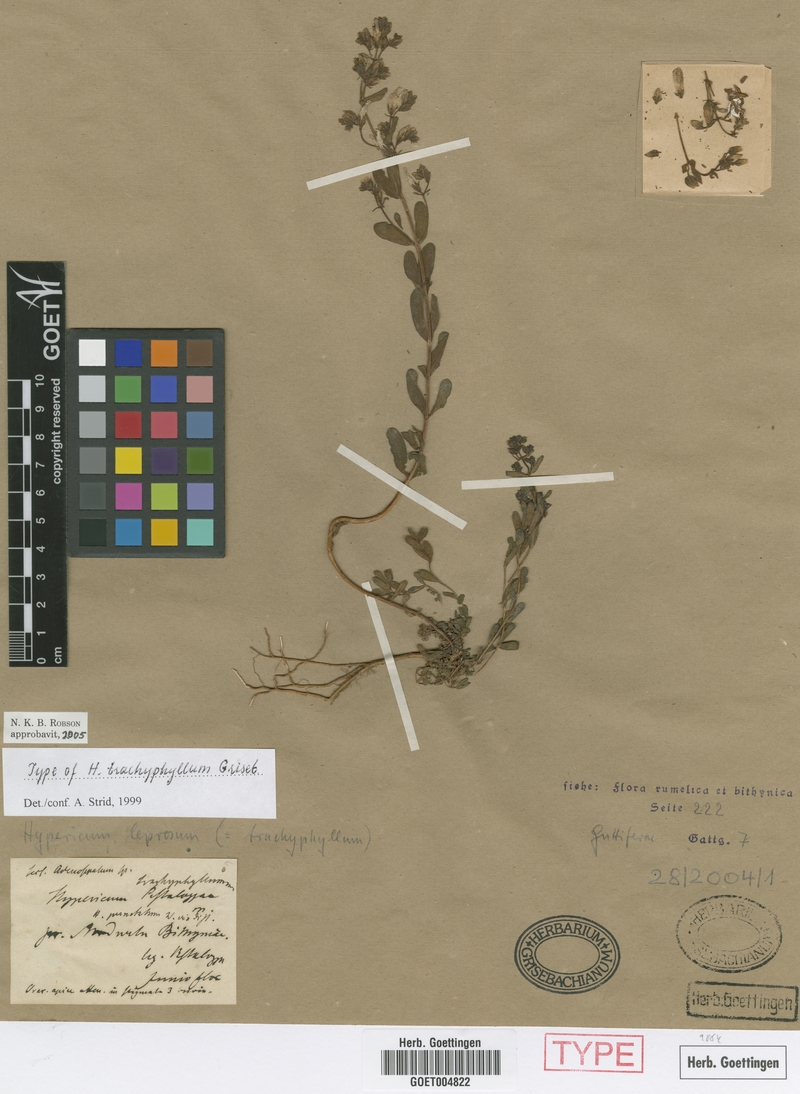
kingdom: Plantae
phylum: Tracheophyta
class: Magnoliopsida
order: Malpighiales
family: Hypericaceae
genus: Hypericum
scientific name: Hypericum byzantinum
